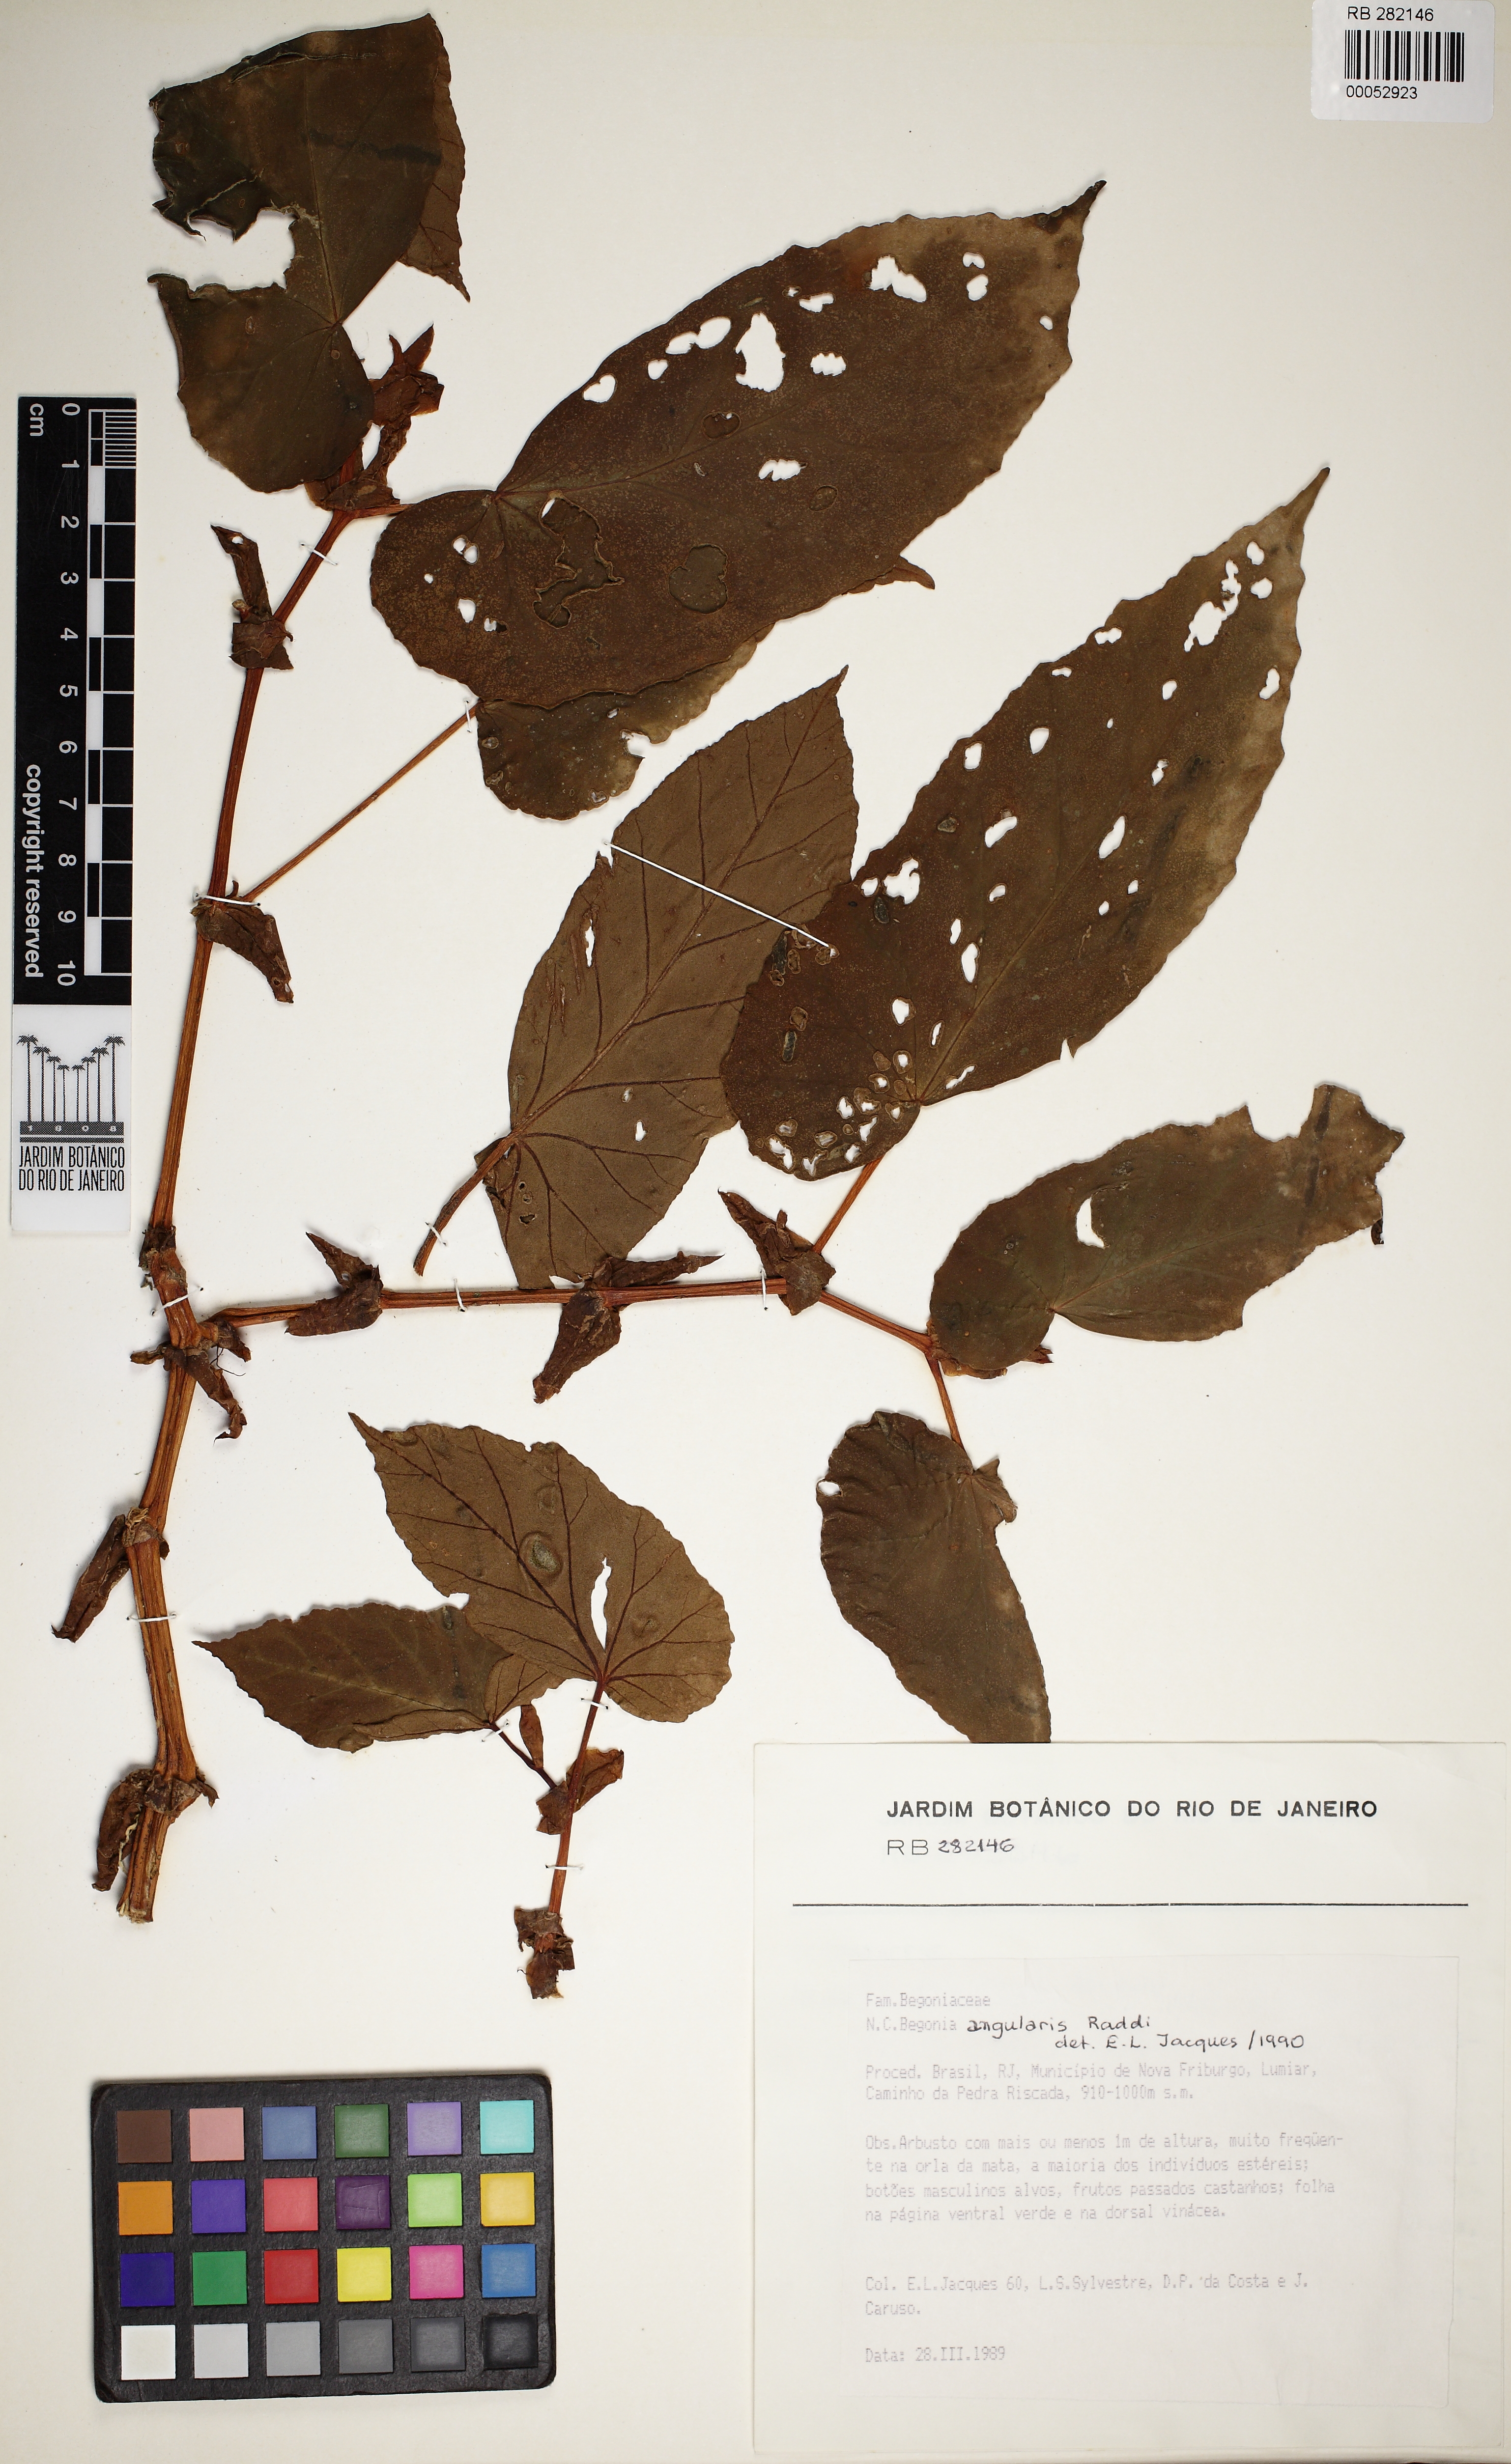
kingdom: Plantae
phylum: Tracheophyta
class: Magnoliopsida
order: Cucurbitales
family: Begoniaceae
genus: Begonia
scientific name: Begonia angularis
